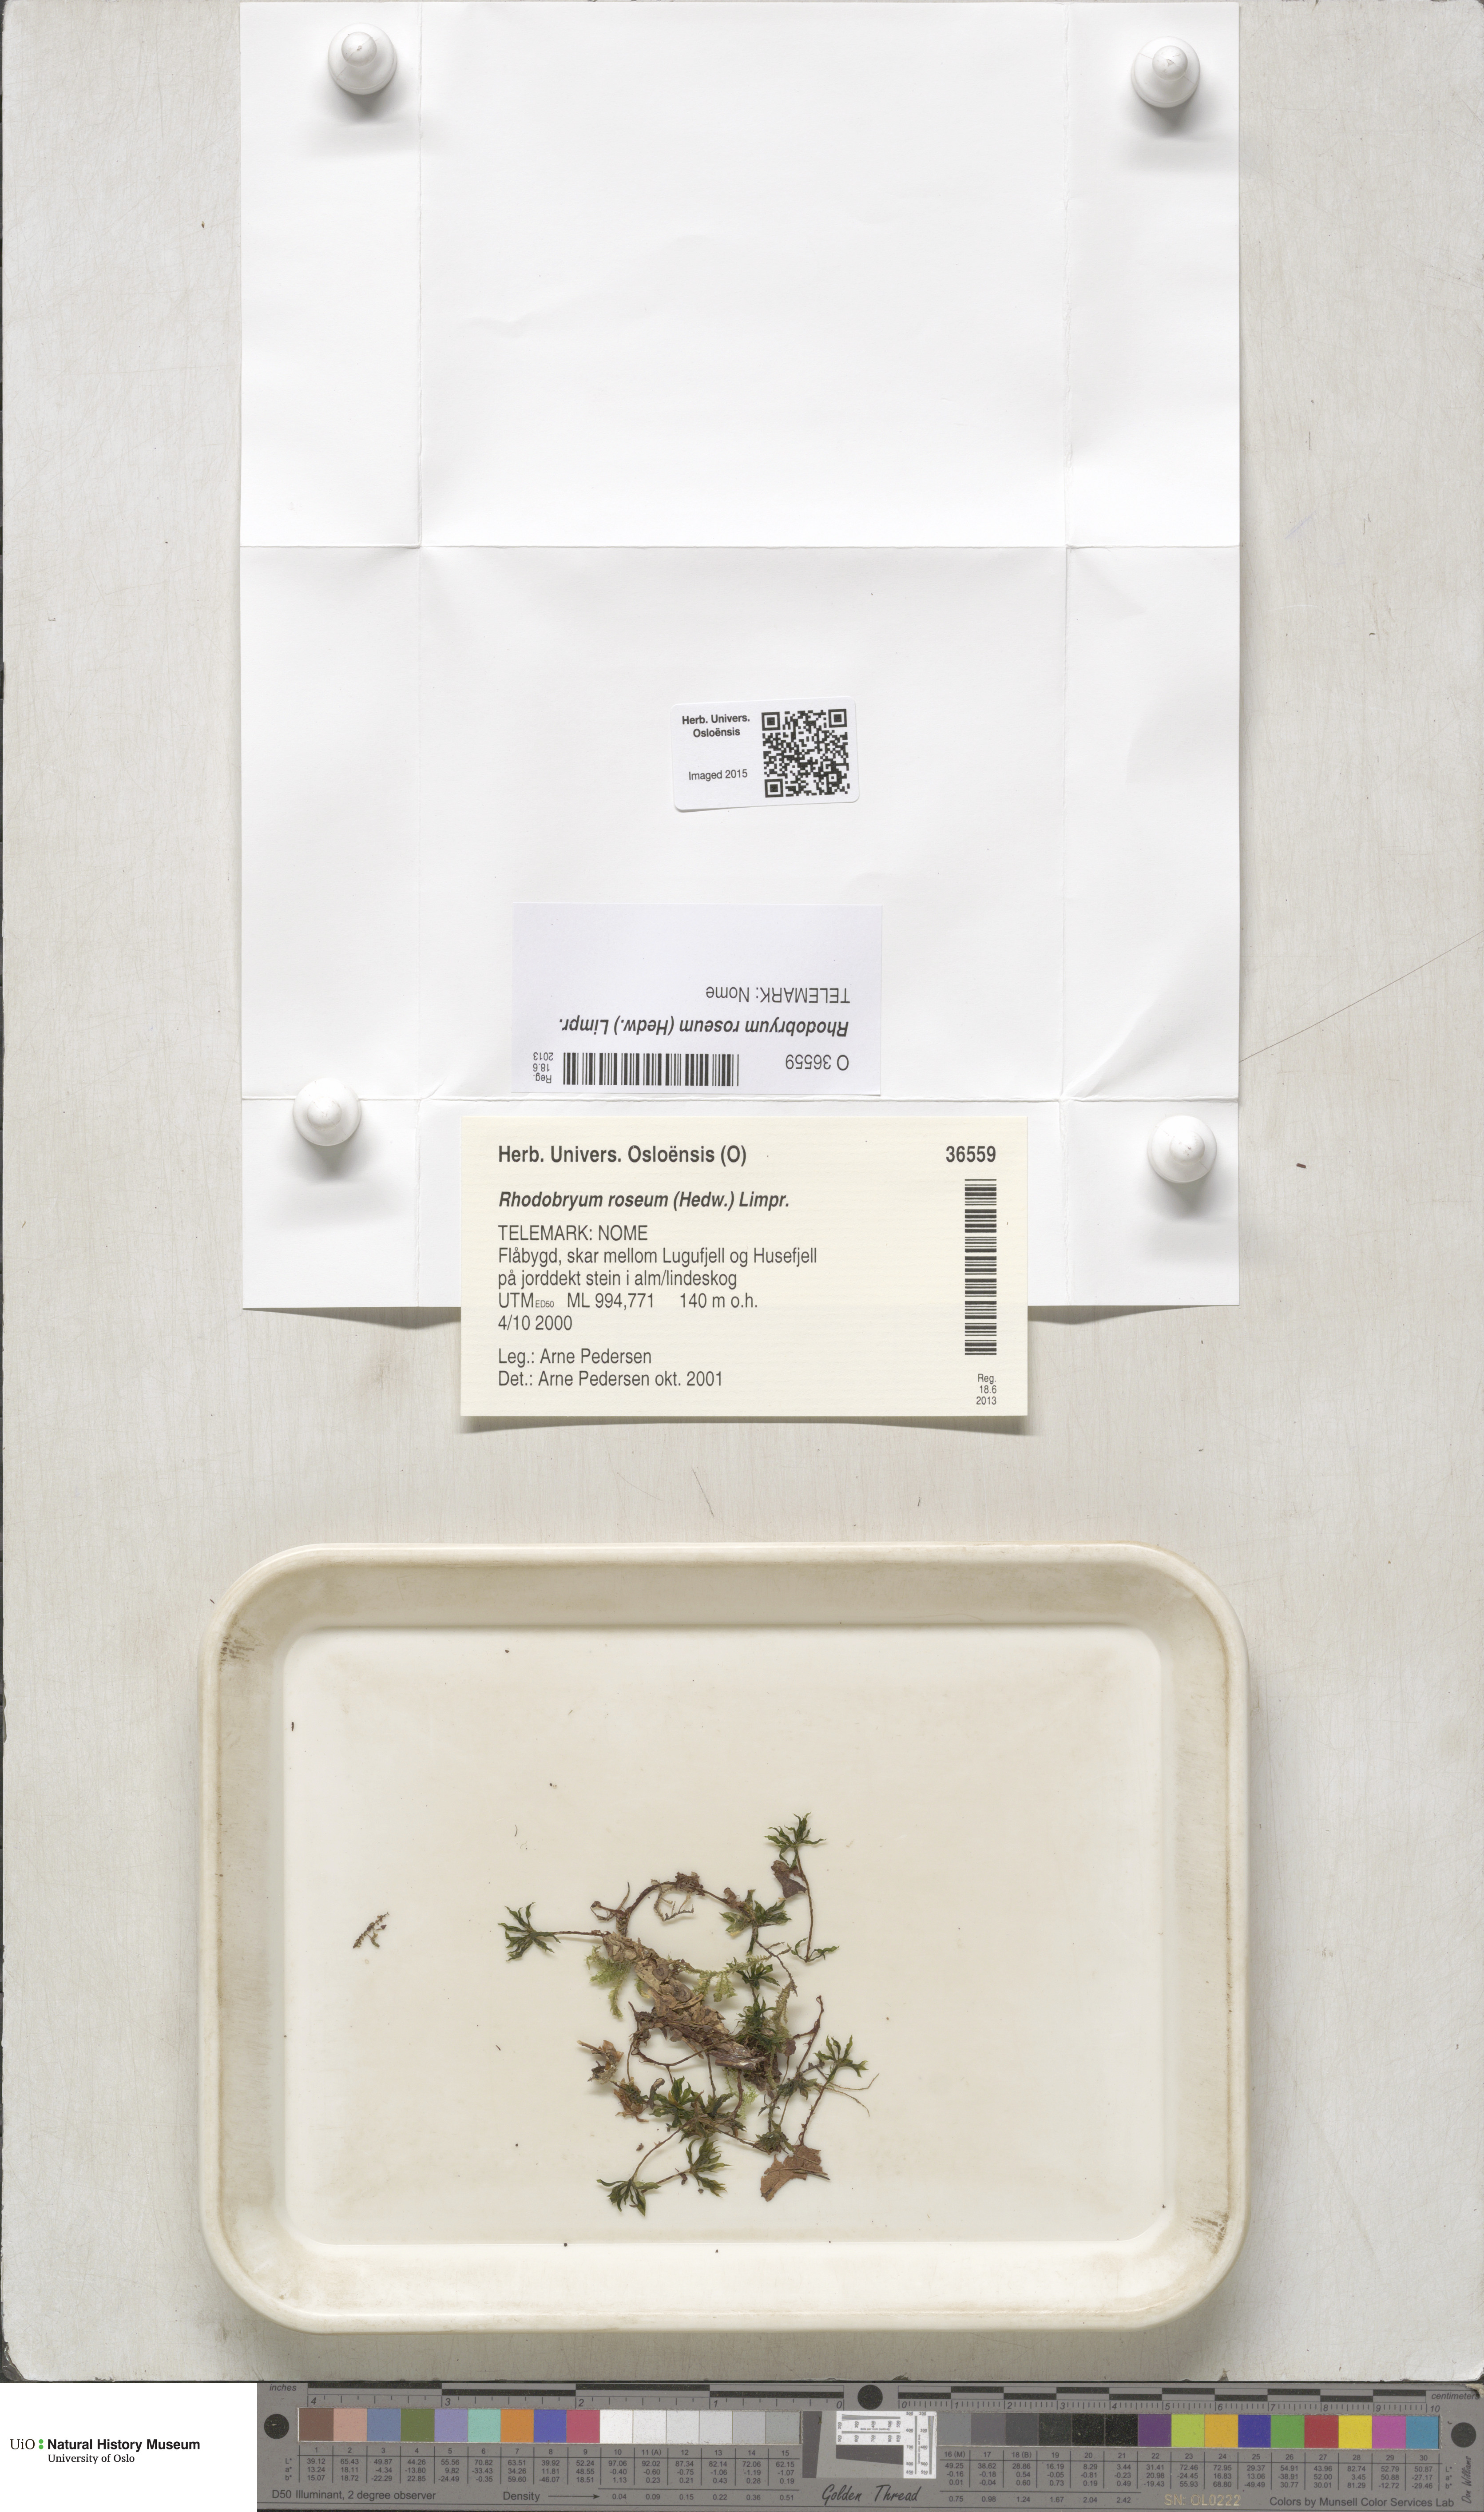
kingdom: Plantae
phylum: Bryophyta
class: Bryopsida
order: Bryales
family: Bryaceae
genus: Rhodobryum
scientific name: Rhodobryum roseum
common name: Rose-moss
